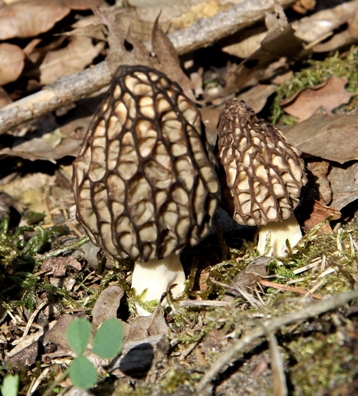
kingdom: Fungi
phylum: Ascomycota
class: Pezizomycetes
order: Pezizales
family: Morchellaceae
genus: Morchella
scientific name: Morchella esculenta
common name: Morel
